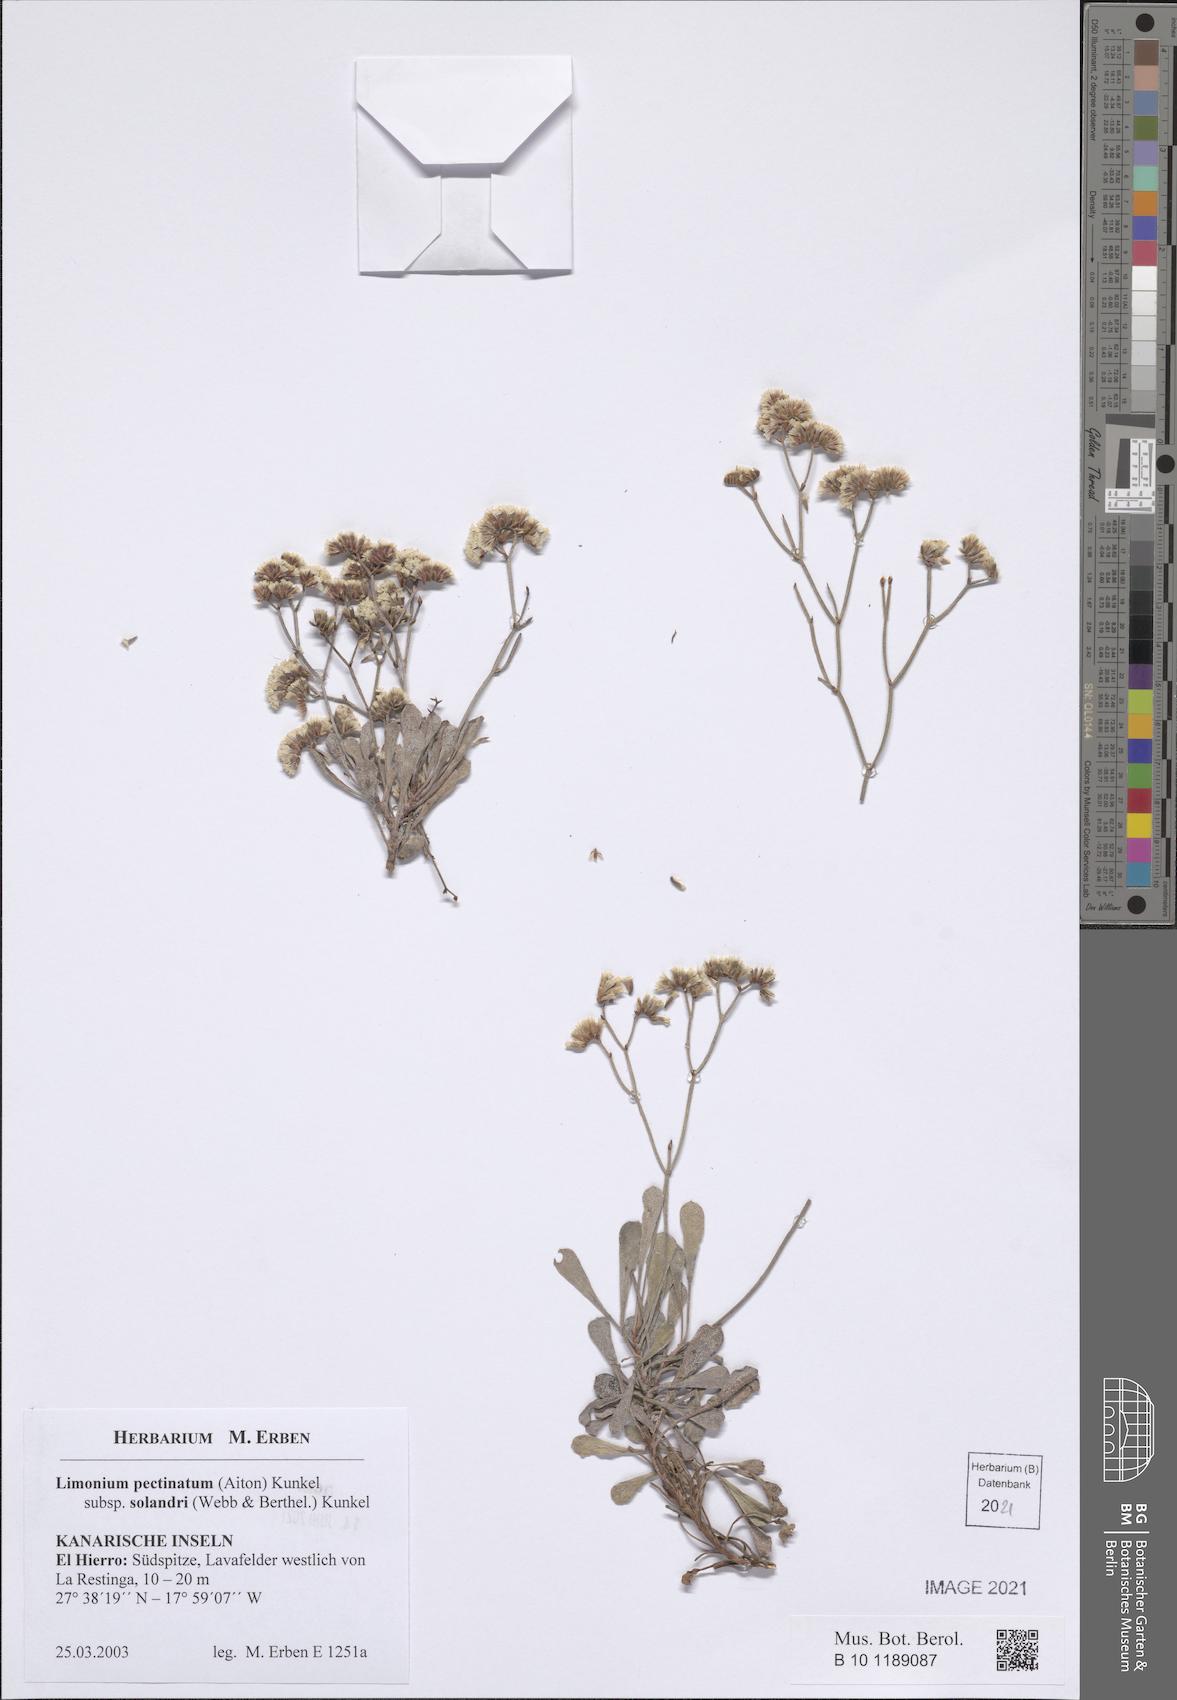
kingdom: Plantae
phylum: Tracheophyta
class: Magnoliopsida
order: Caryophyllales
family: Plumbaginaceae
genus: Limonium
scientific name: Limonium pectinatum
